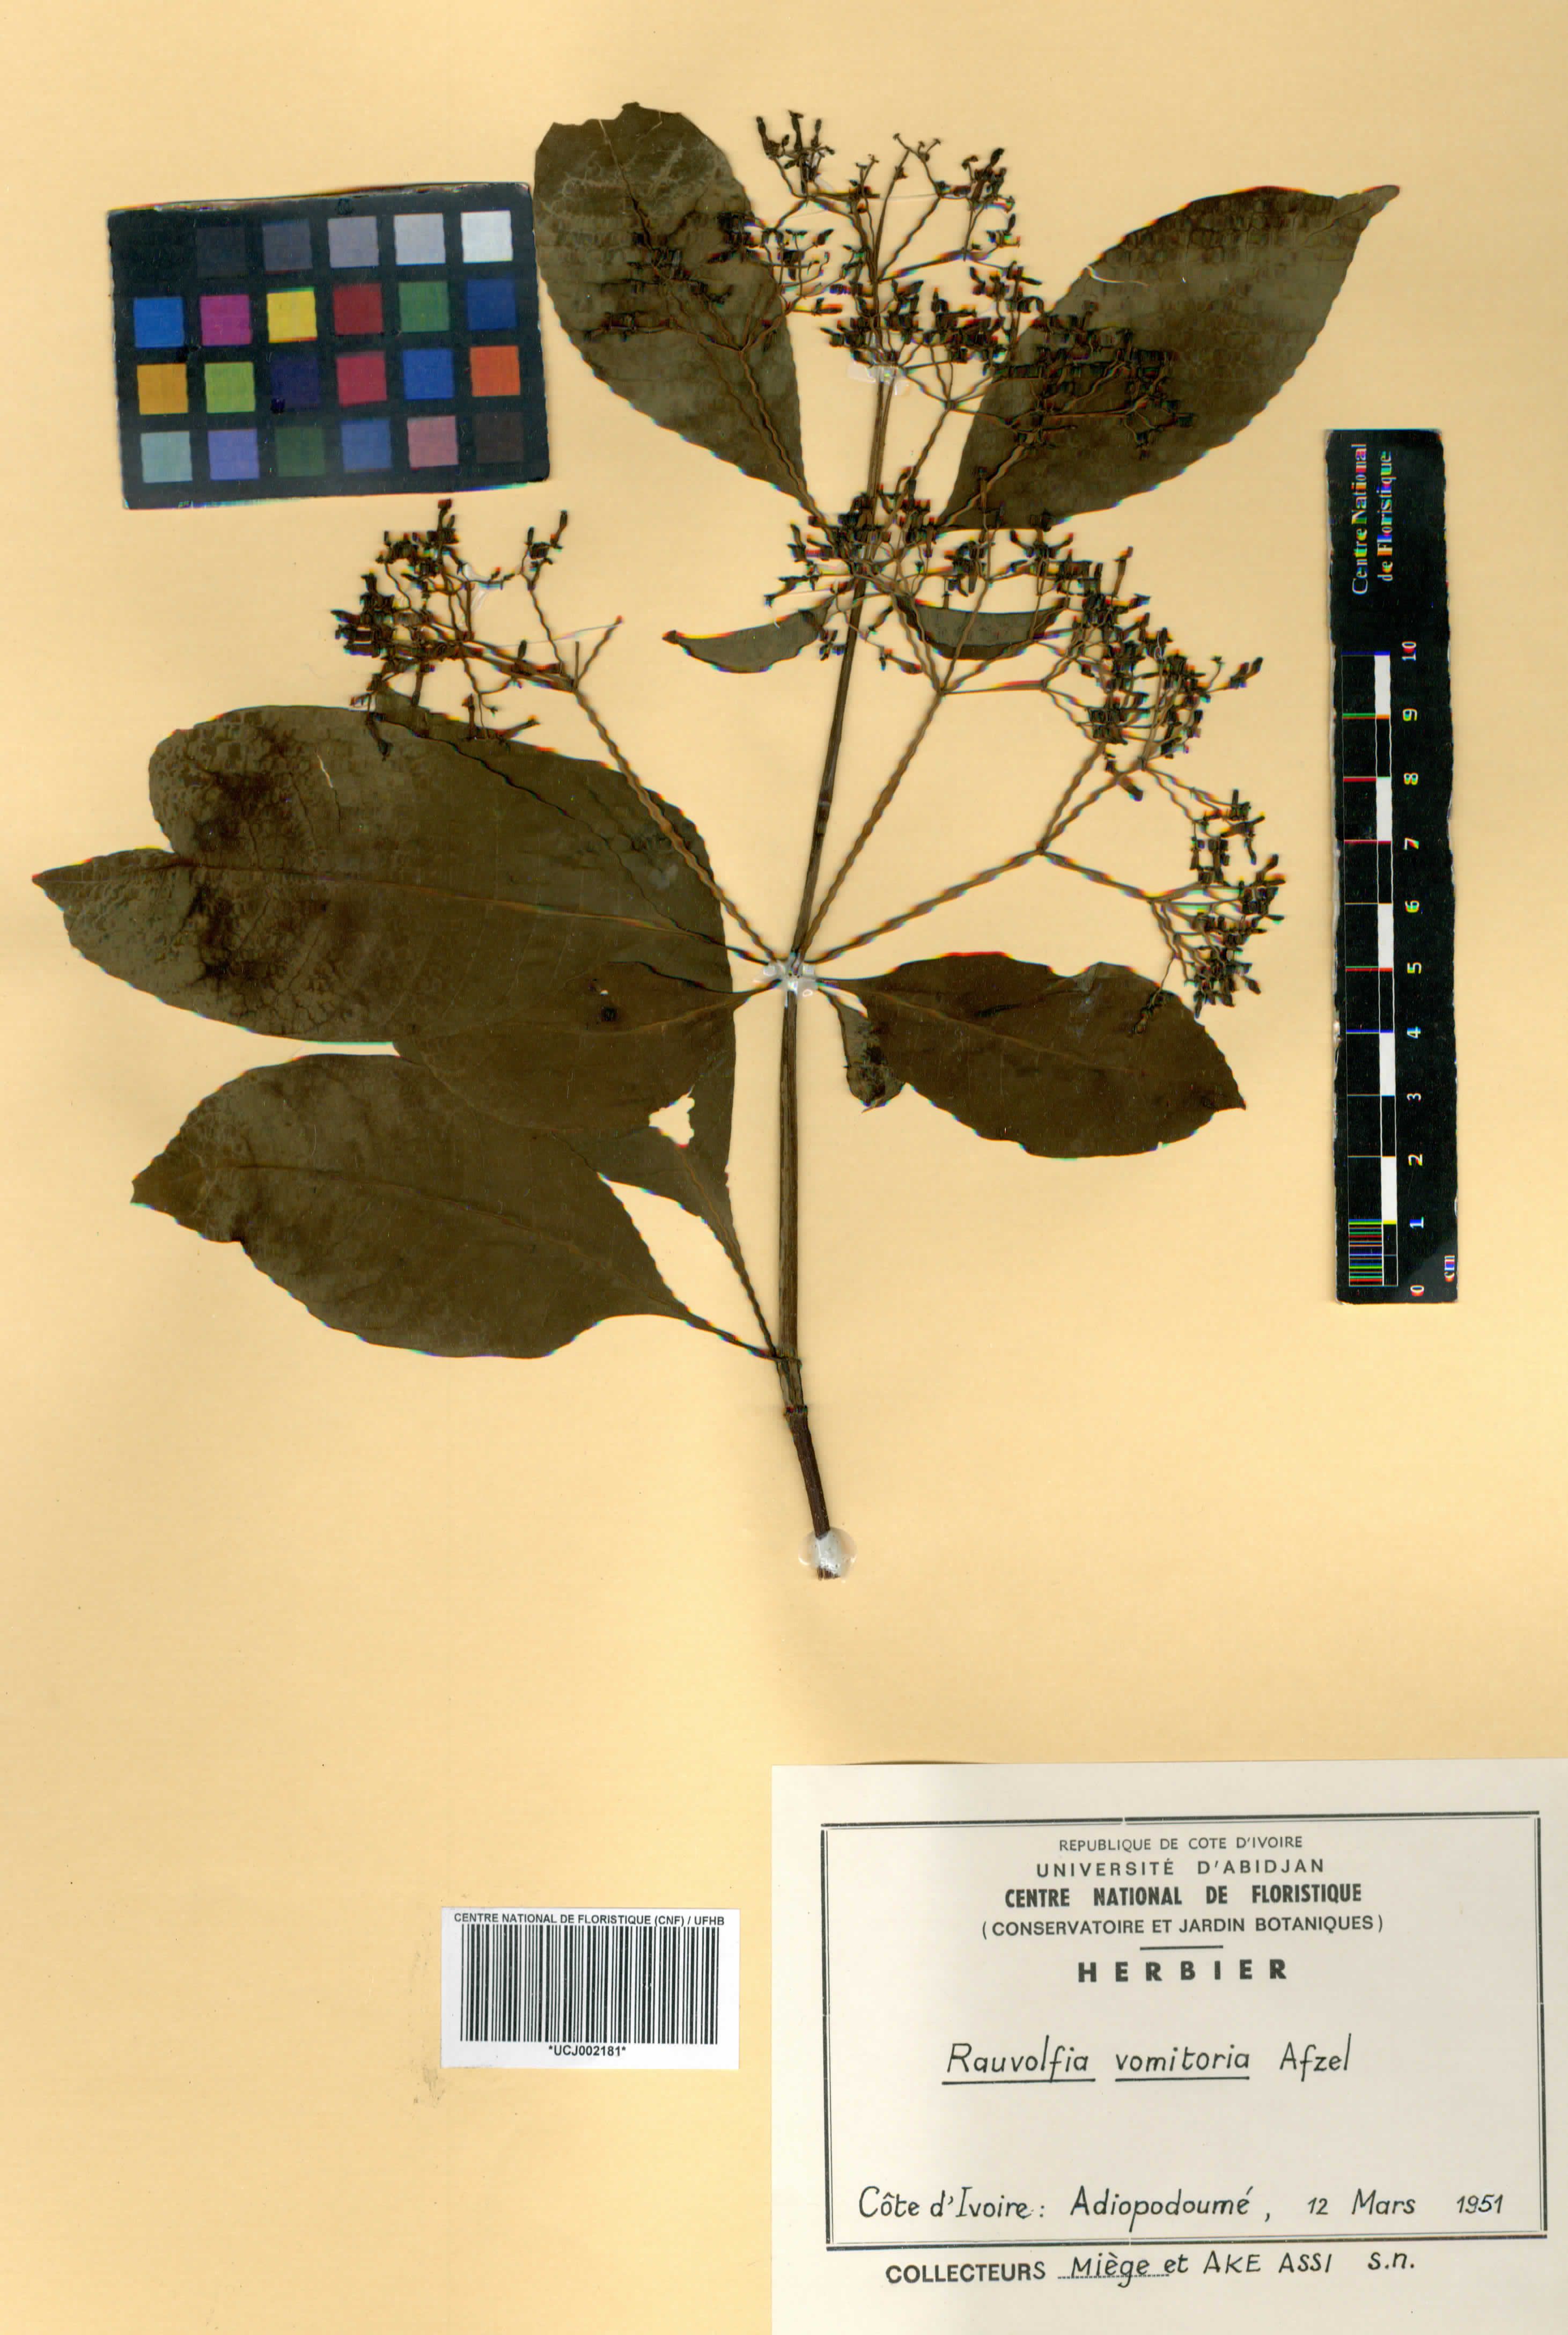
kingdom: Plantae
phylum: Tracheophyta
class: Magnoliopsida
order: Gentianales
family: Apocynaceae
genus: Rauvolfia
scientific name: Rauvolfia vomitoria
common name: Poison devil's-pepper
